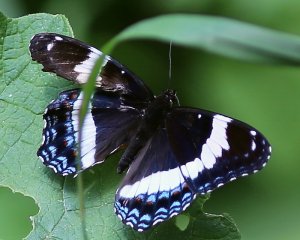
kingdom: Animalia
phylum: Arthropoda
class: Insecta
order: Lepidoptera
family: Nymphalidae
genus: Limenitis
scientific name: Limenitis arthemis
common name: Red-spotted Admiral
